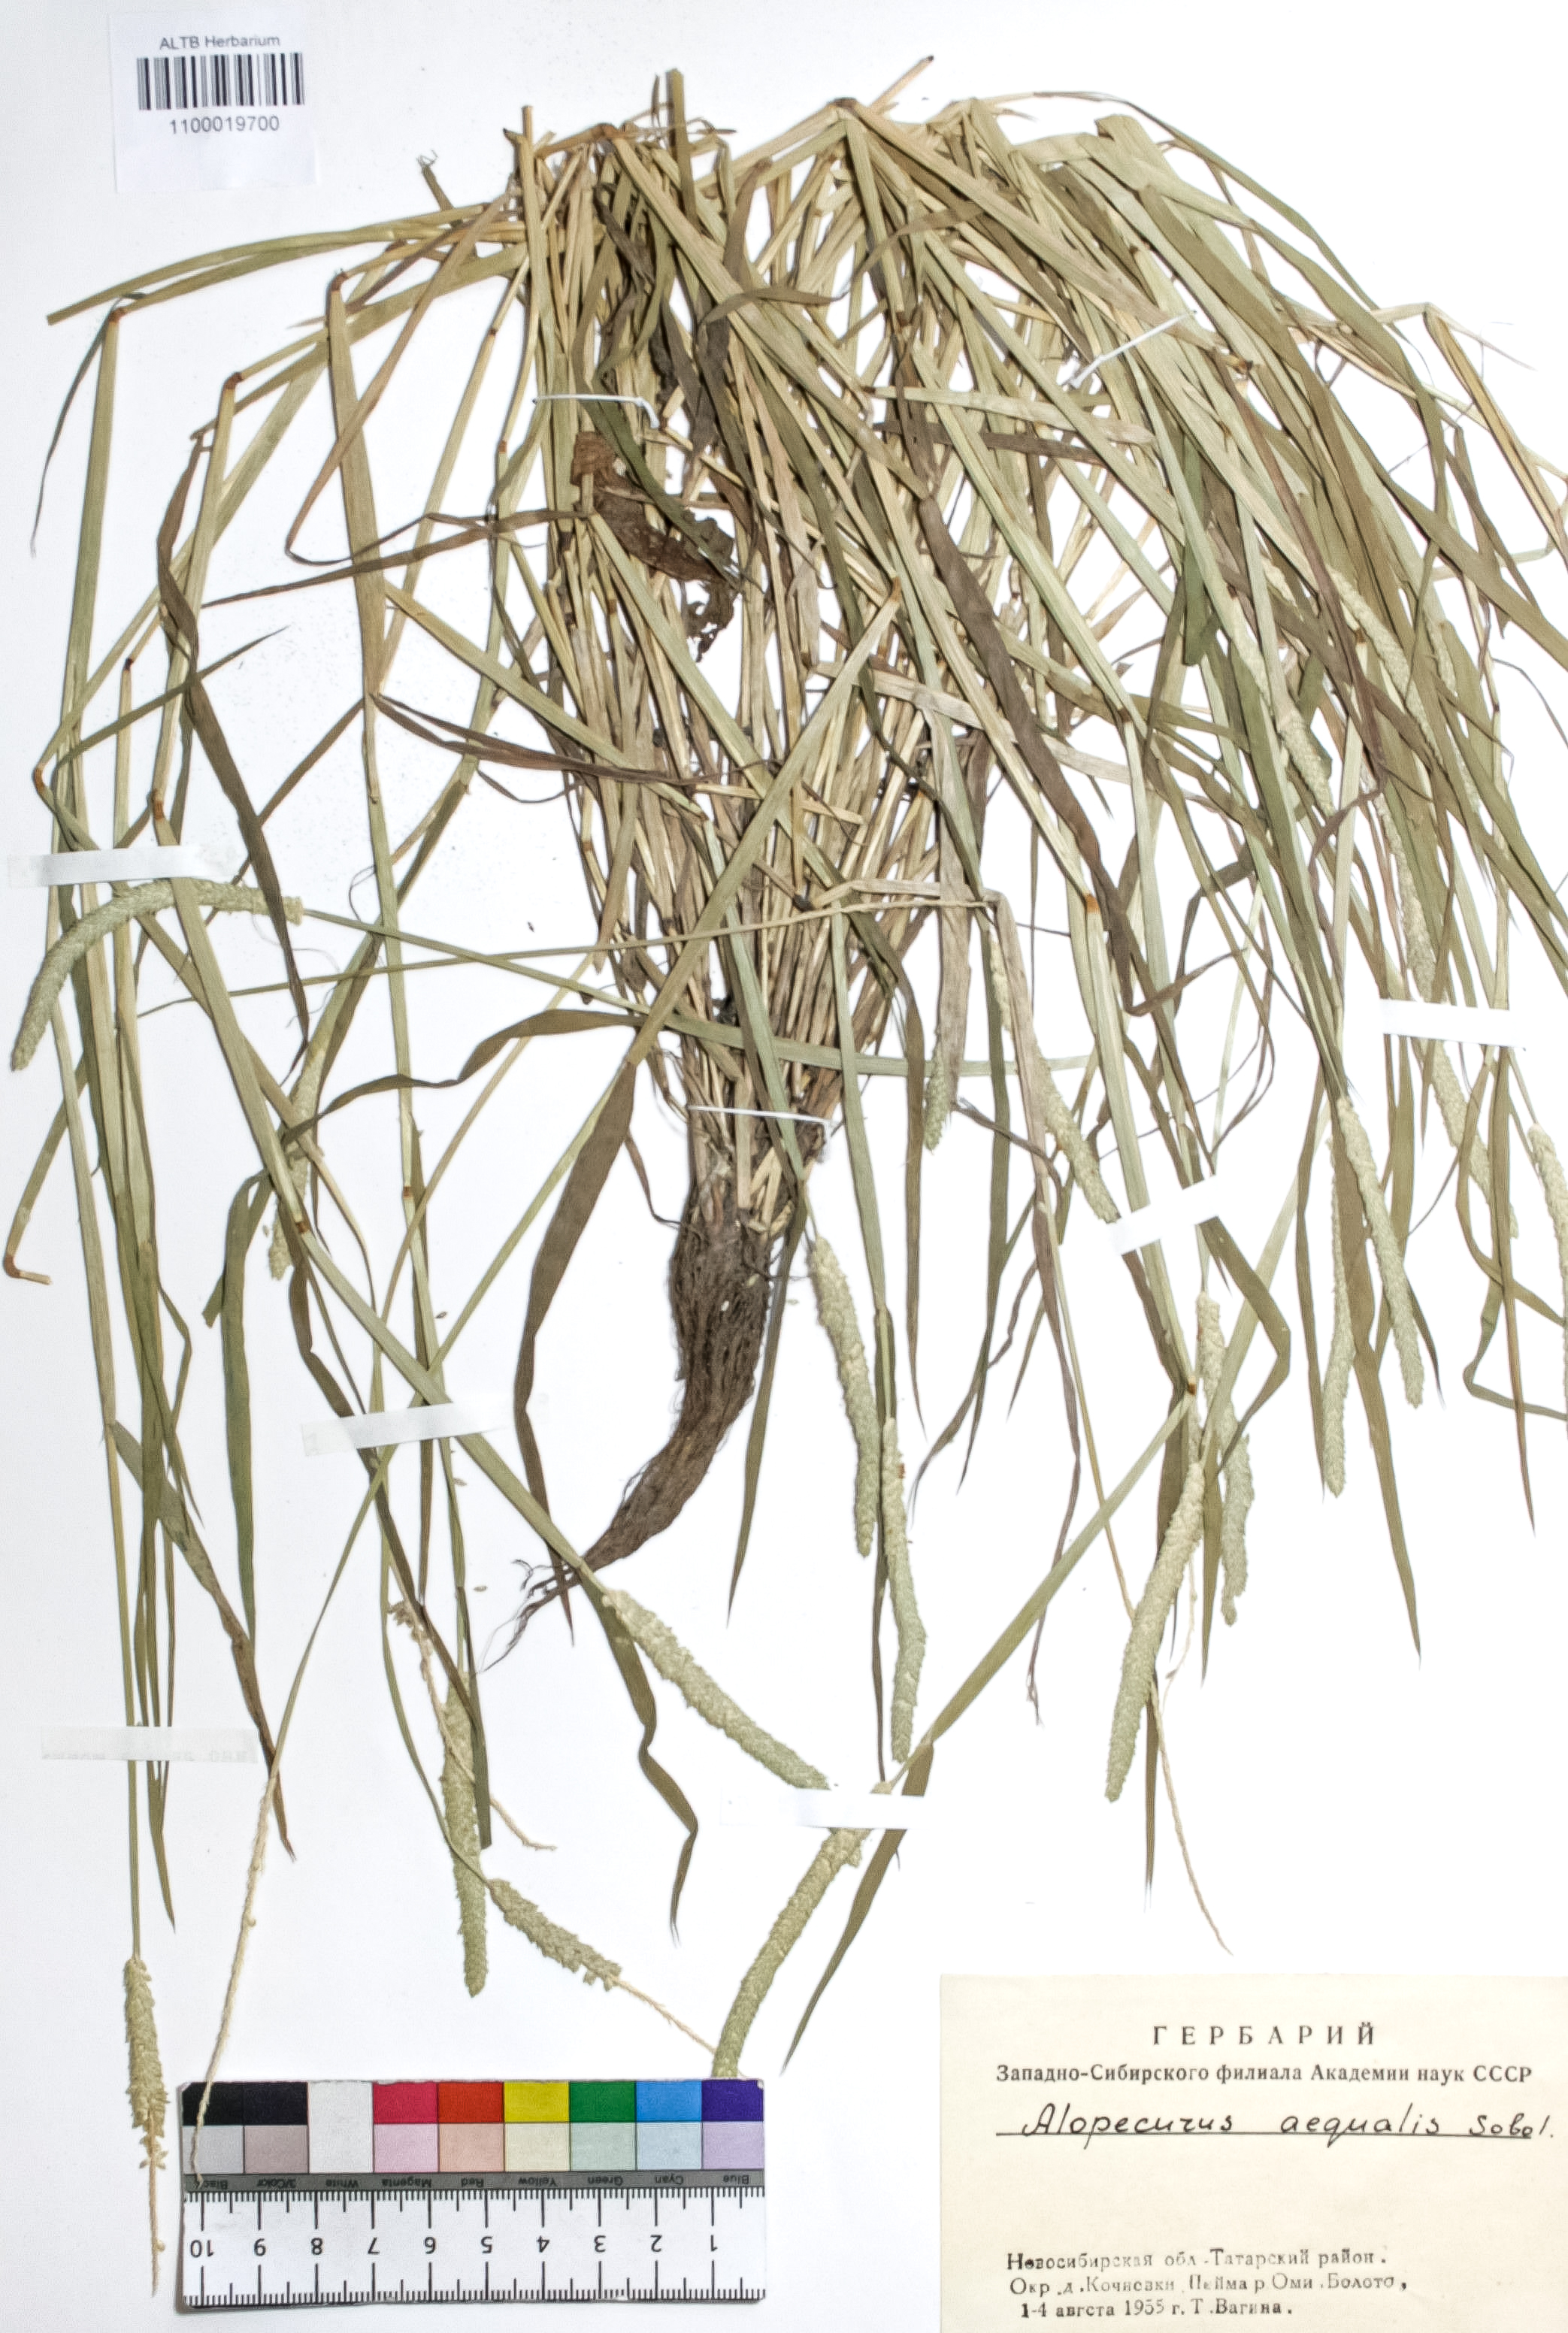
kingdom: Plantae
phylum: Tracheophyta
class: Liliopsida
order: Poales
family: Poaceae
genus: Alopecurus
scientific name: Alopecurus aequalis
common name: Orange foxtail
